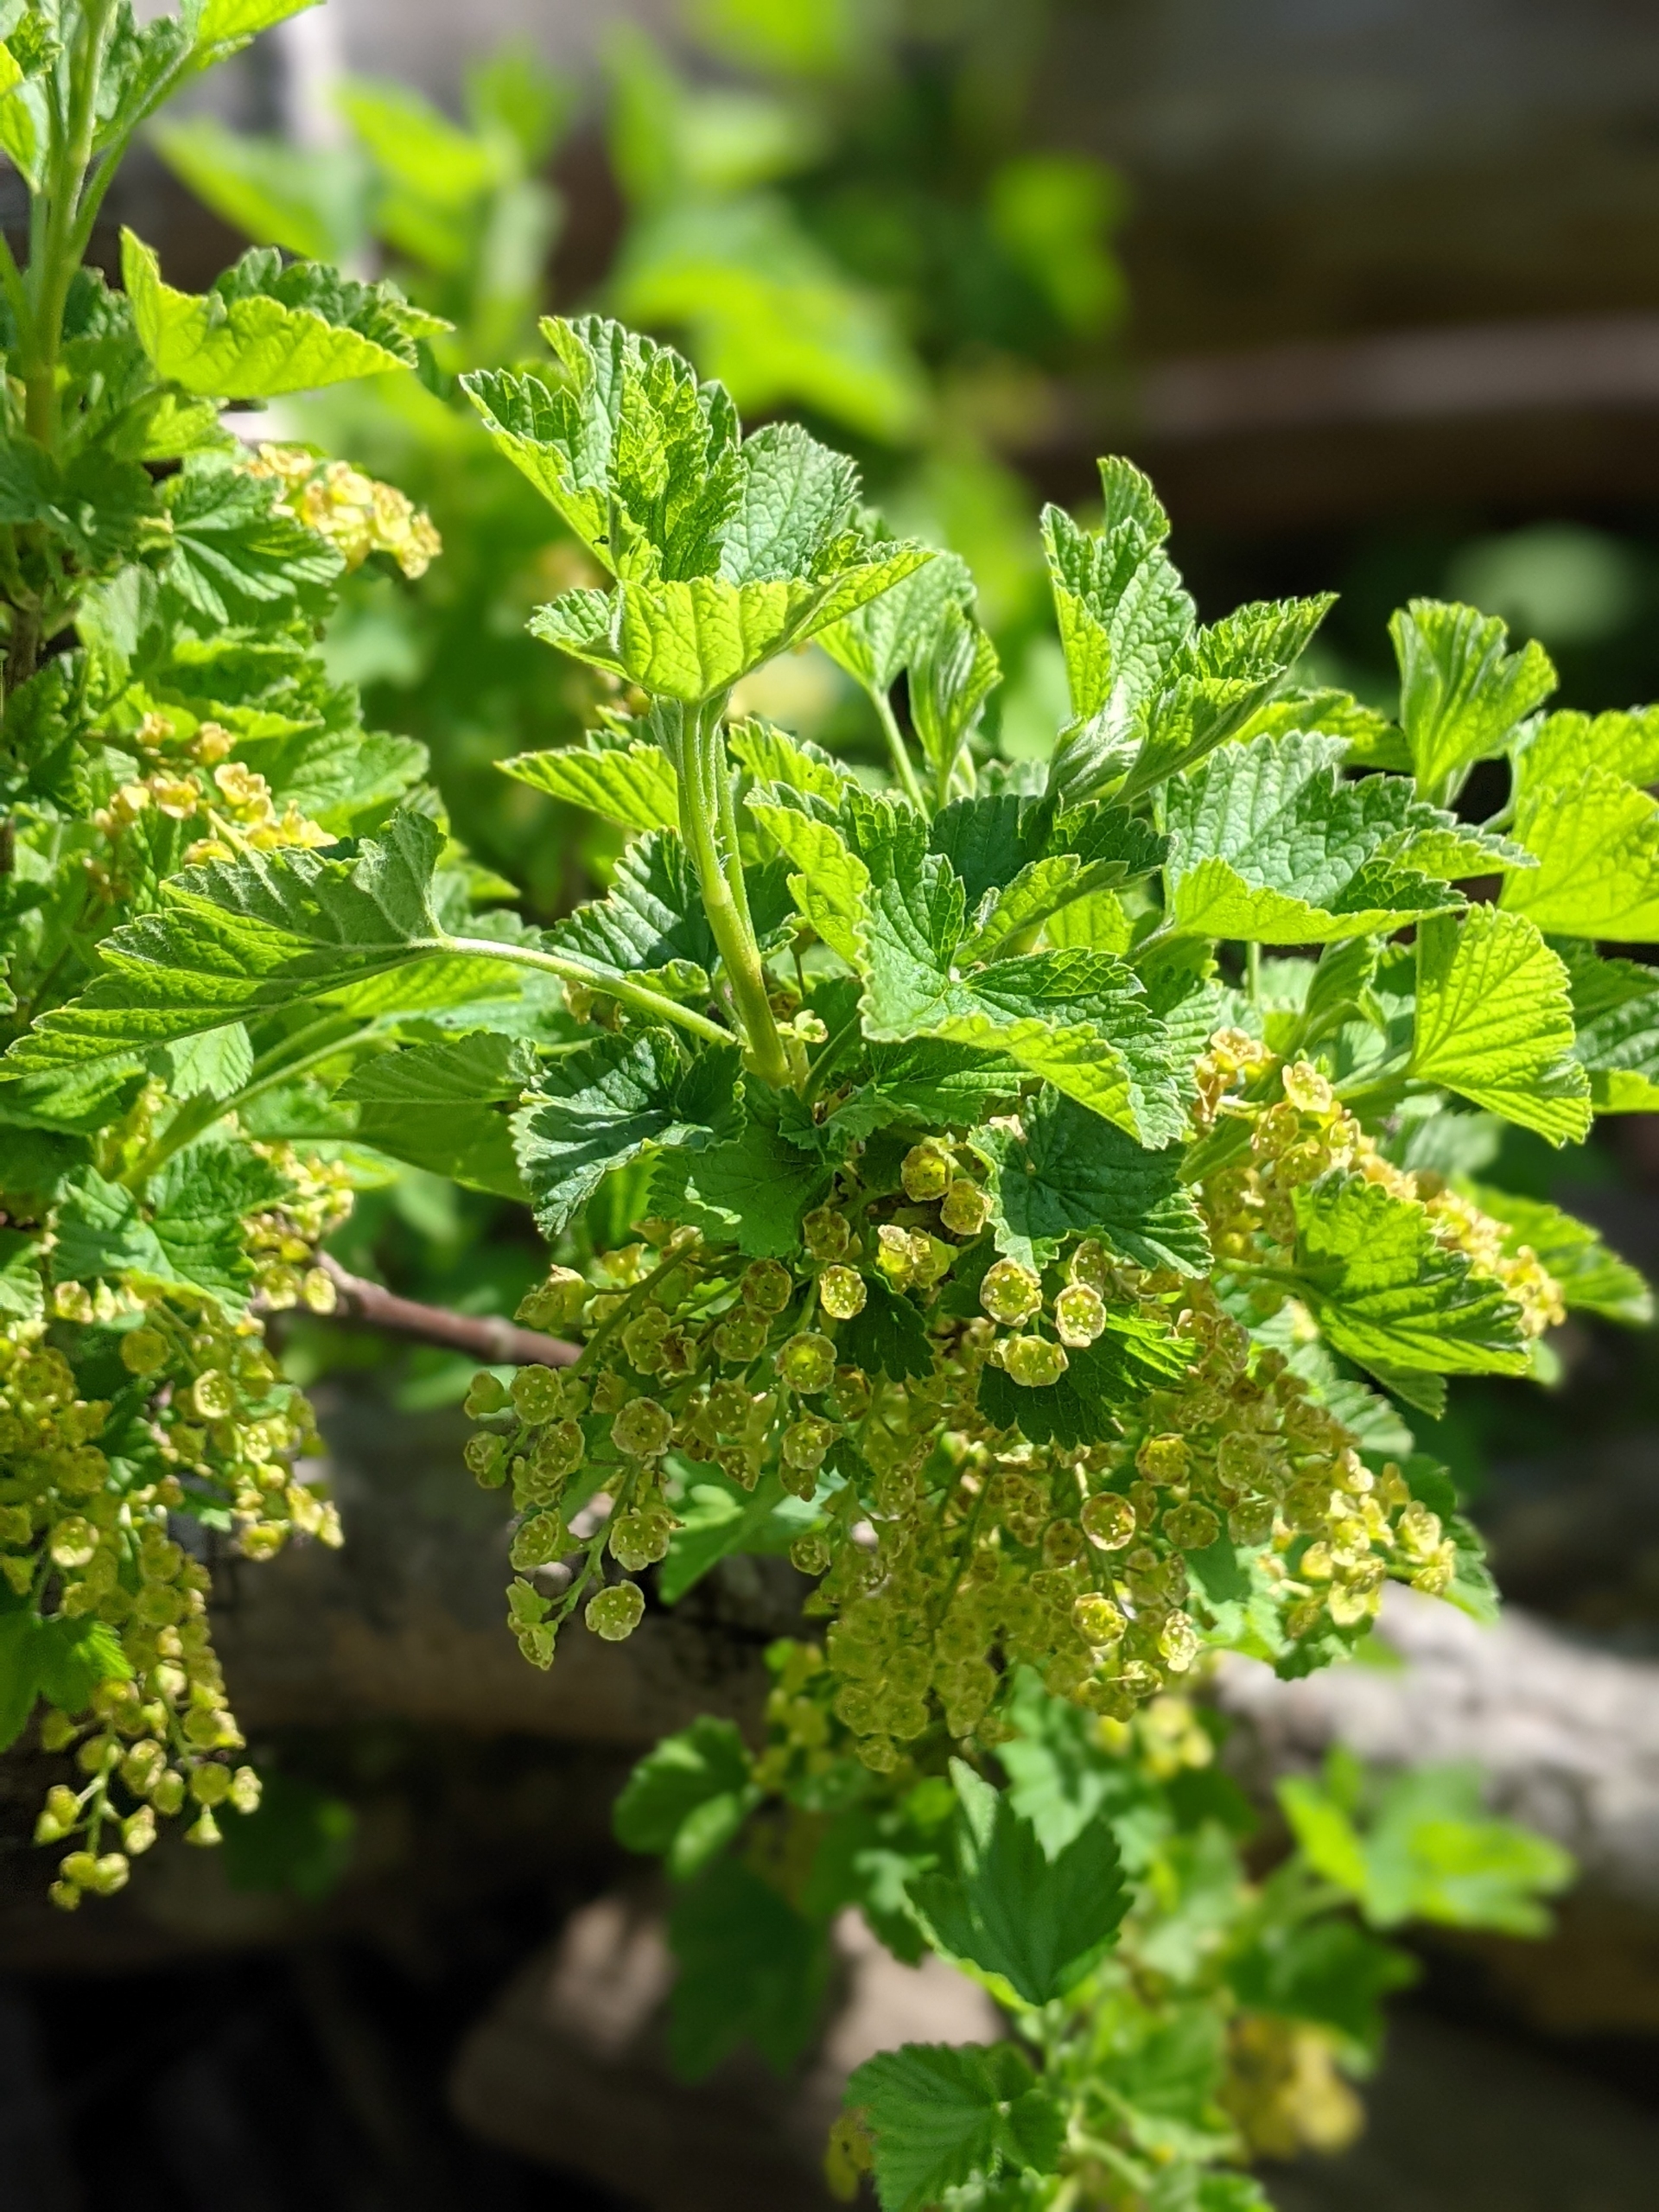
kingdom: Plantae
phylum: Tracheophyta
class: Magnoliopsida
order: Saxifragales
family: Grossulariaceae
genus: Ribes
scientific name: Ribes rubrum
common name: Slots-ribs
